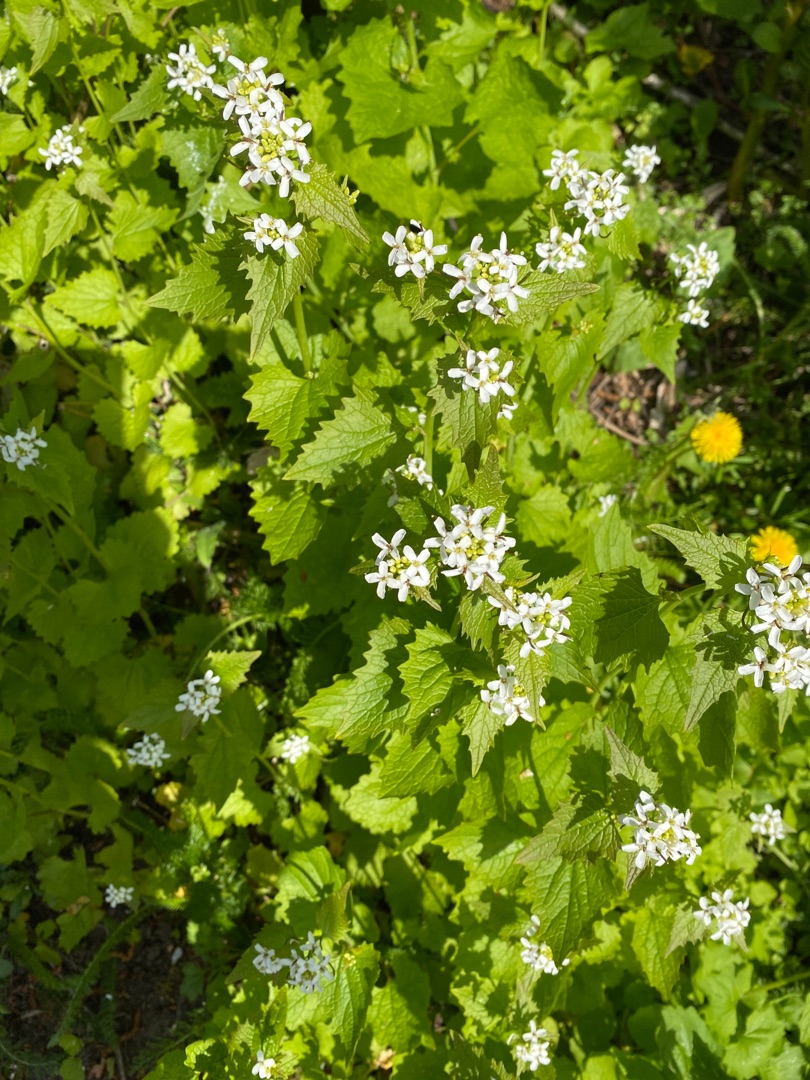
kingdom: Plantae
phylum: Tracheophyta
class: Magnoliopsida
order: Brassicales
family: Brassicaceae
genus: Alliaria
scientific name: Alliaria petiolata
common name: Løgkarse
